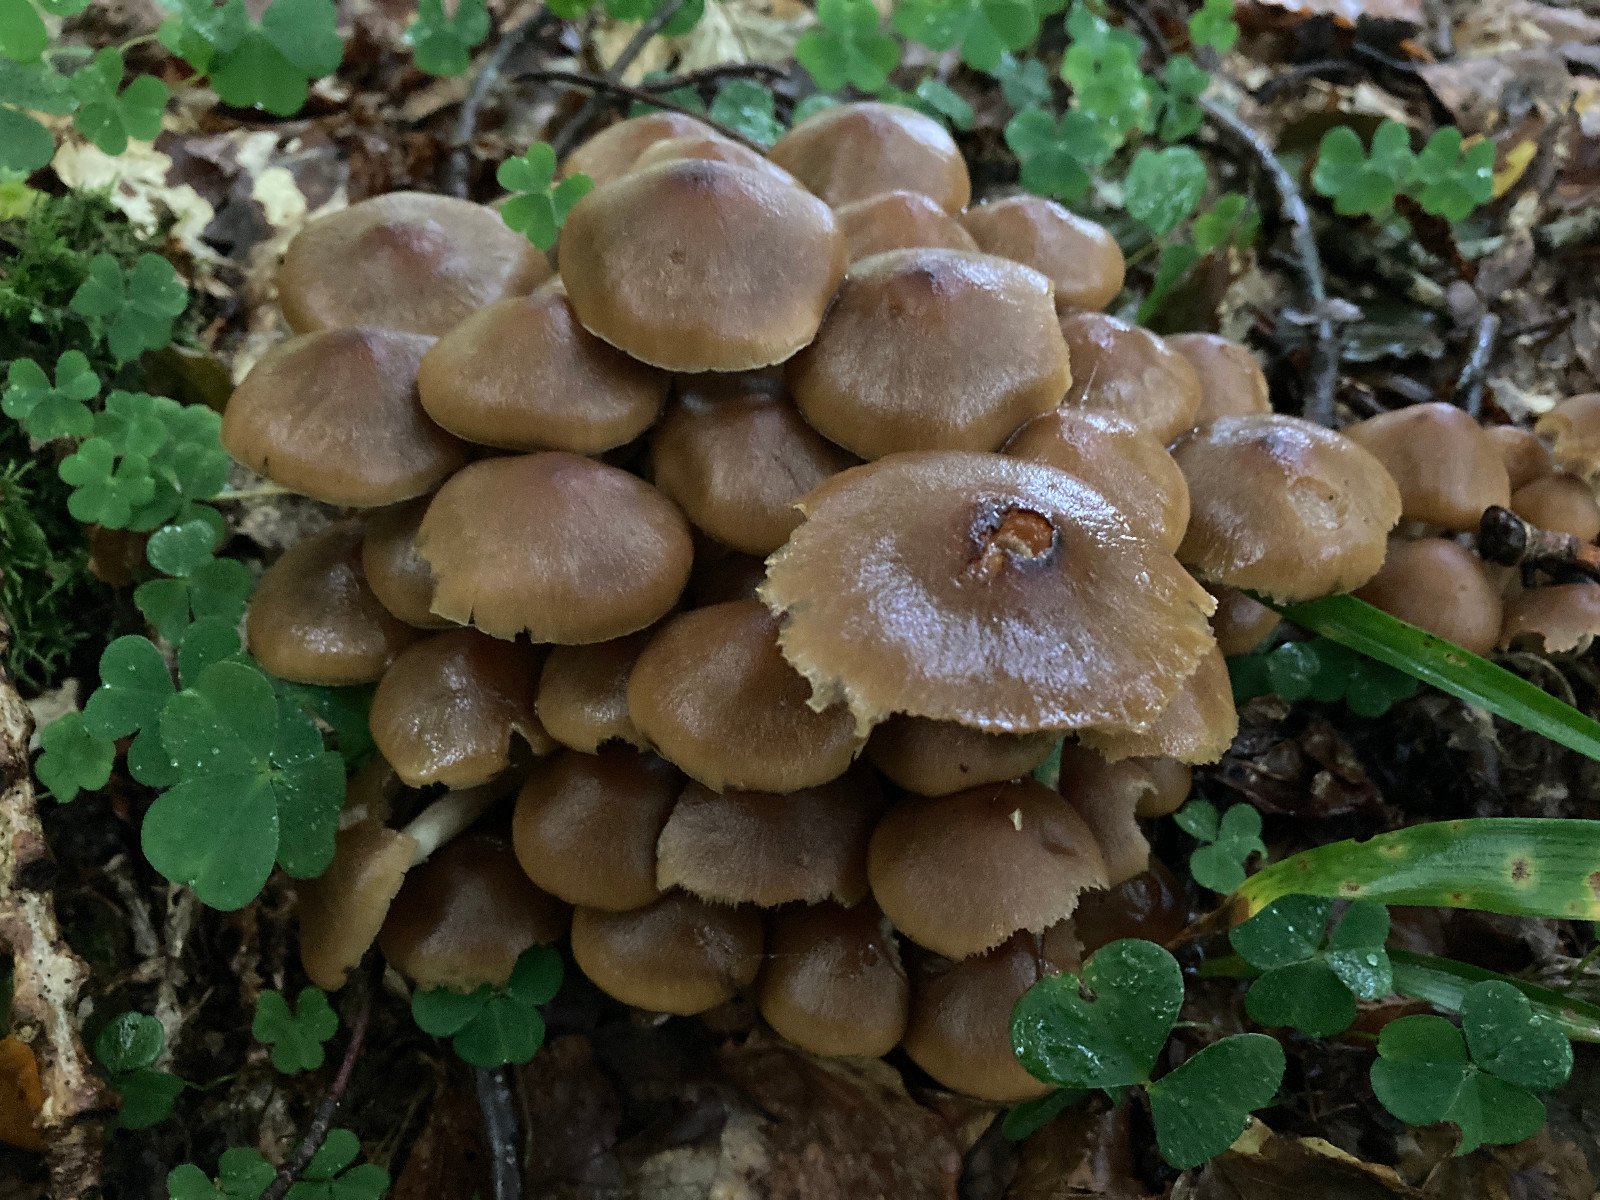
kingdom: Fungi
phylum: Basidiomycota
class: Agaricomycetes
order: Agaricales
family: Psathyrellaceae
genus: Psathyrella
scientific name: Psathyrella piluliformis
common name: lysstokket mørkhat
